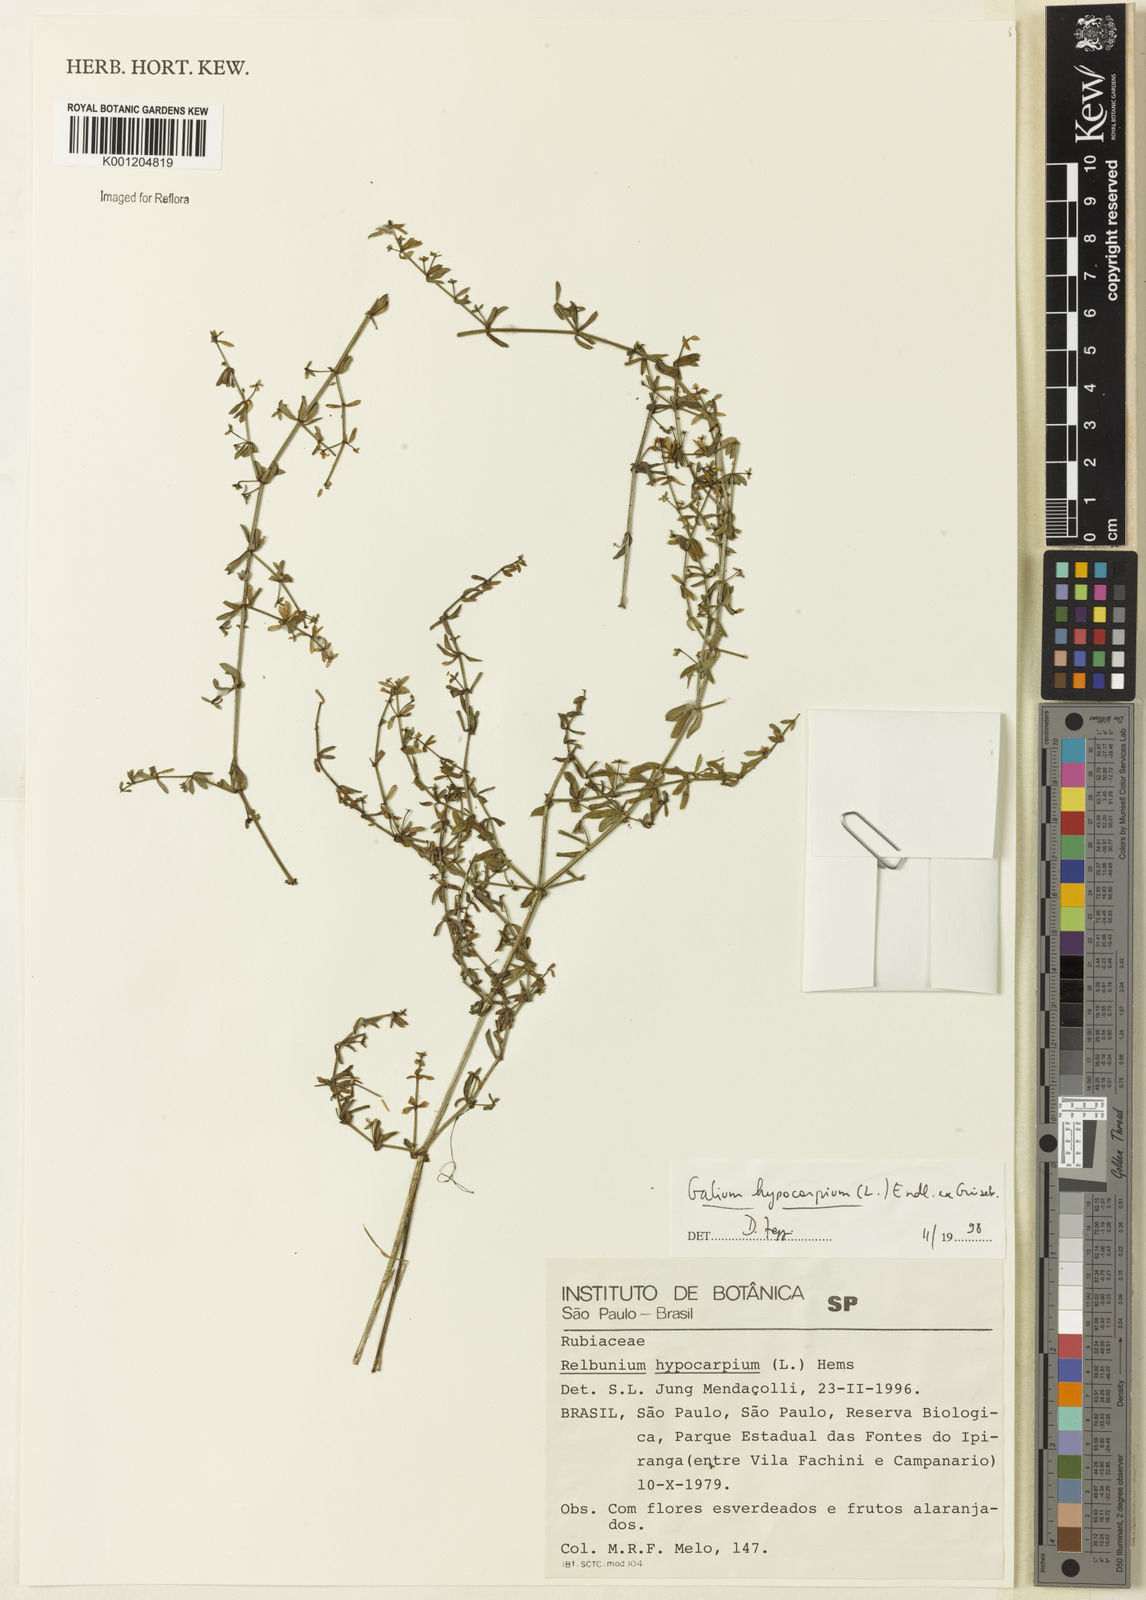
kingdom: Plantae
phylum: Tracheophyta
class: Magnoliopsida
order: Gentianales
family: Rubiaceae
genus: Galium
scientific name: Galium hypocarpium
